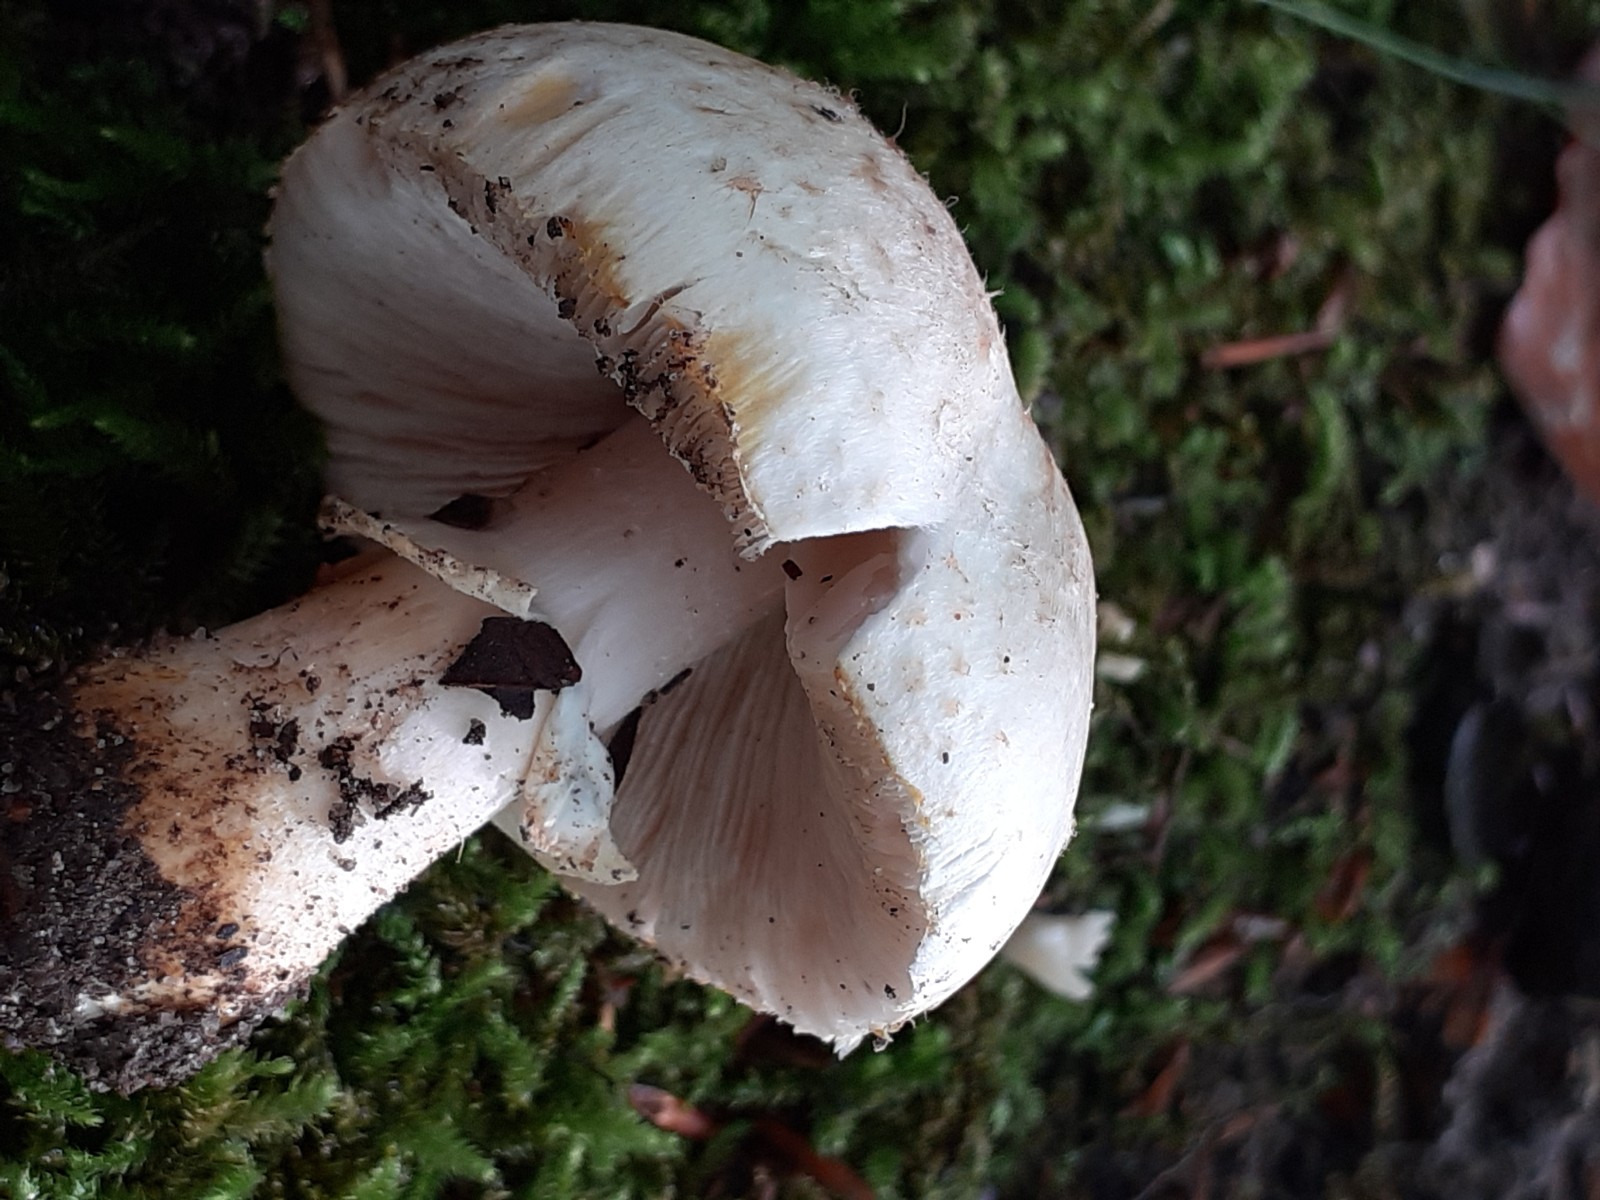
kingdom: Fungi
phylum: Basidiomycota
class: Agaricomycetes
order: Agaricales
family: Agaricaceae
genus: Agaricus
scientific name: Agaricus brunneolus
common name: purpur-champignon
